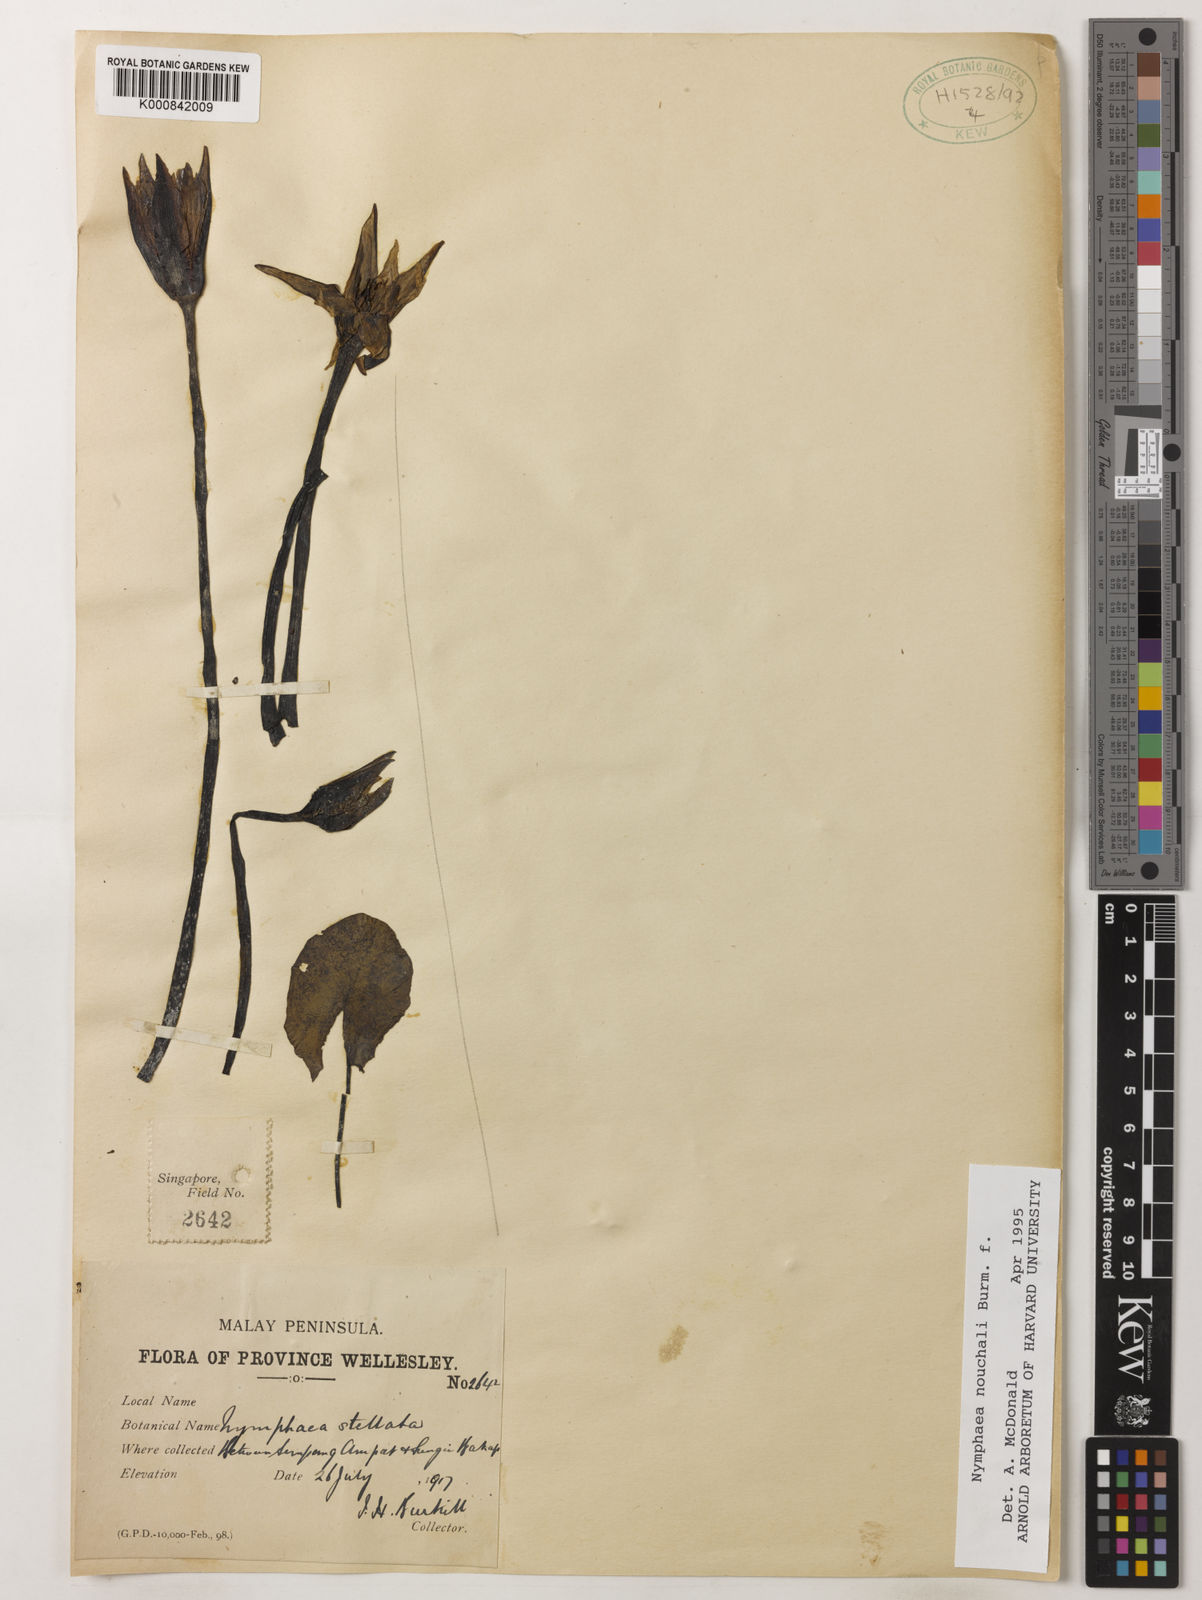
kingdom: Plantae
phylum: Tracheophyta
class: Magnoliopsida
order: Nymphaeales
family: Nymphaeaceae
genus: Nymphaea
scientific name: Nymphaea nouchali
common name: Blue lotus
